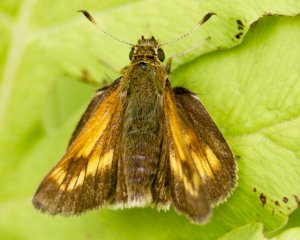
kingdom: Animalia
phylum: Arthropoda
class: Insecta
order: Lepidoptera
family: Hesperiidae
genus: Hesperia
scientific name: Hesperia sassacus
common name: Sassacus Skipper
